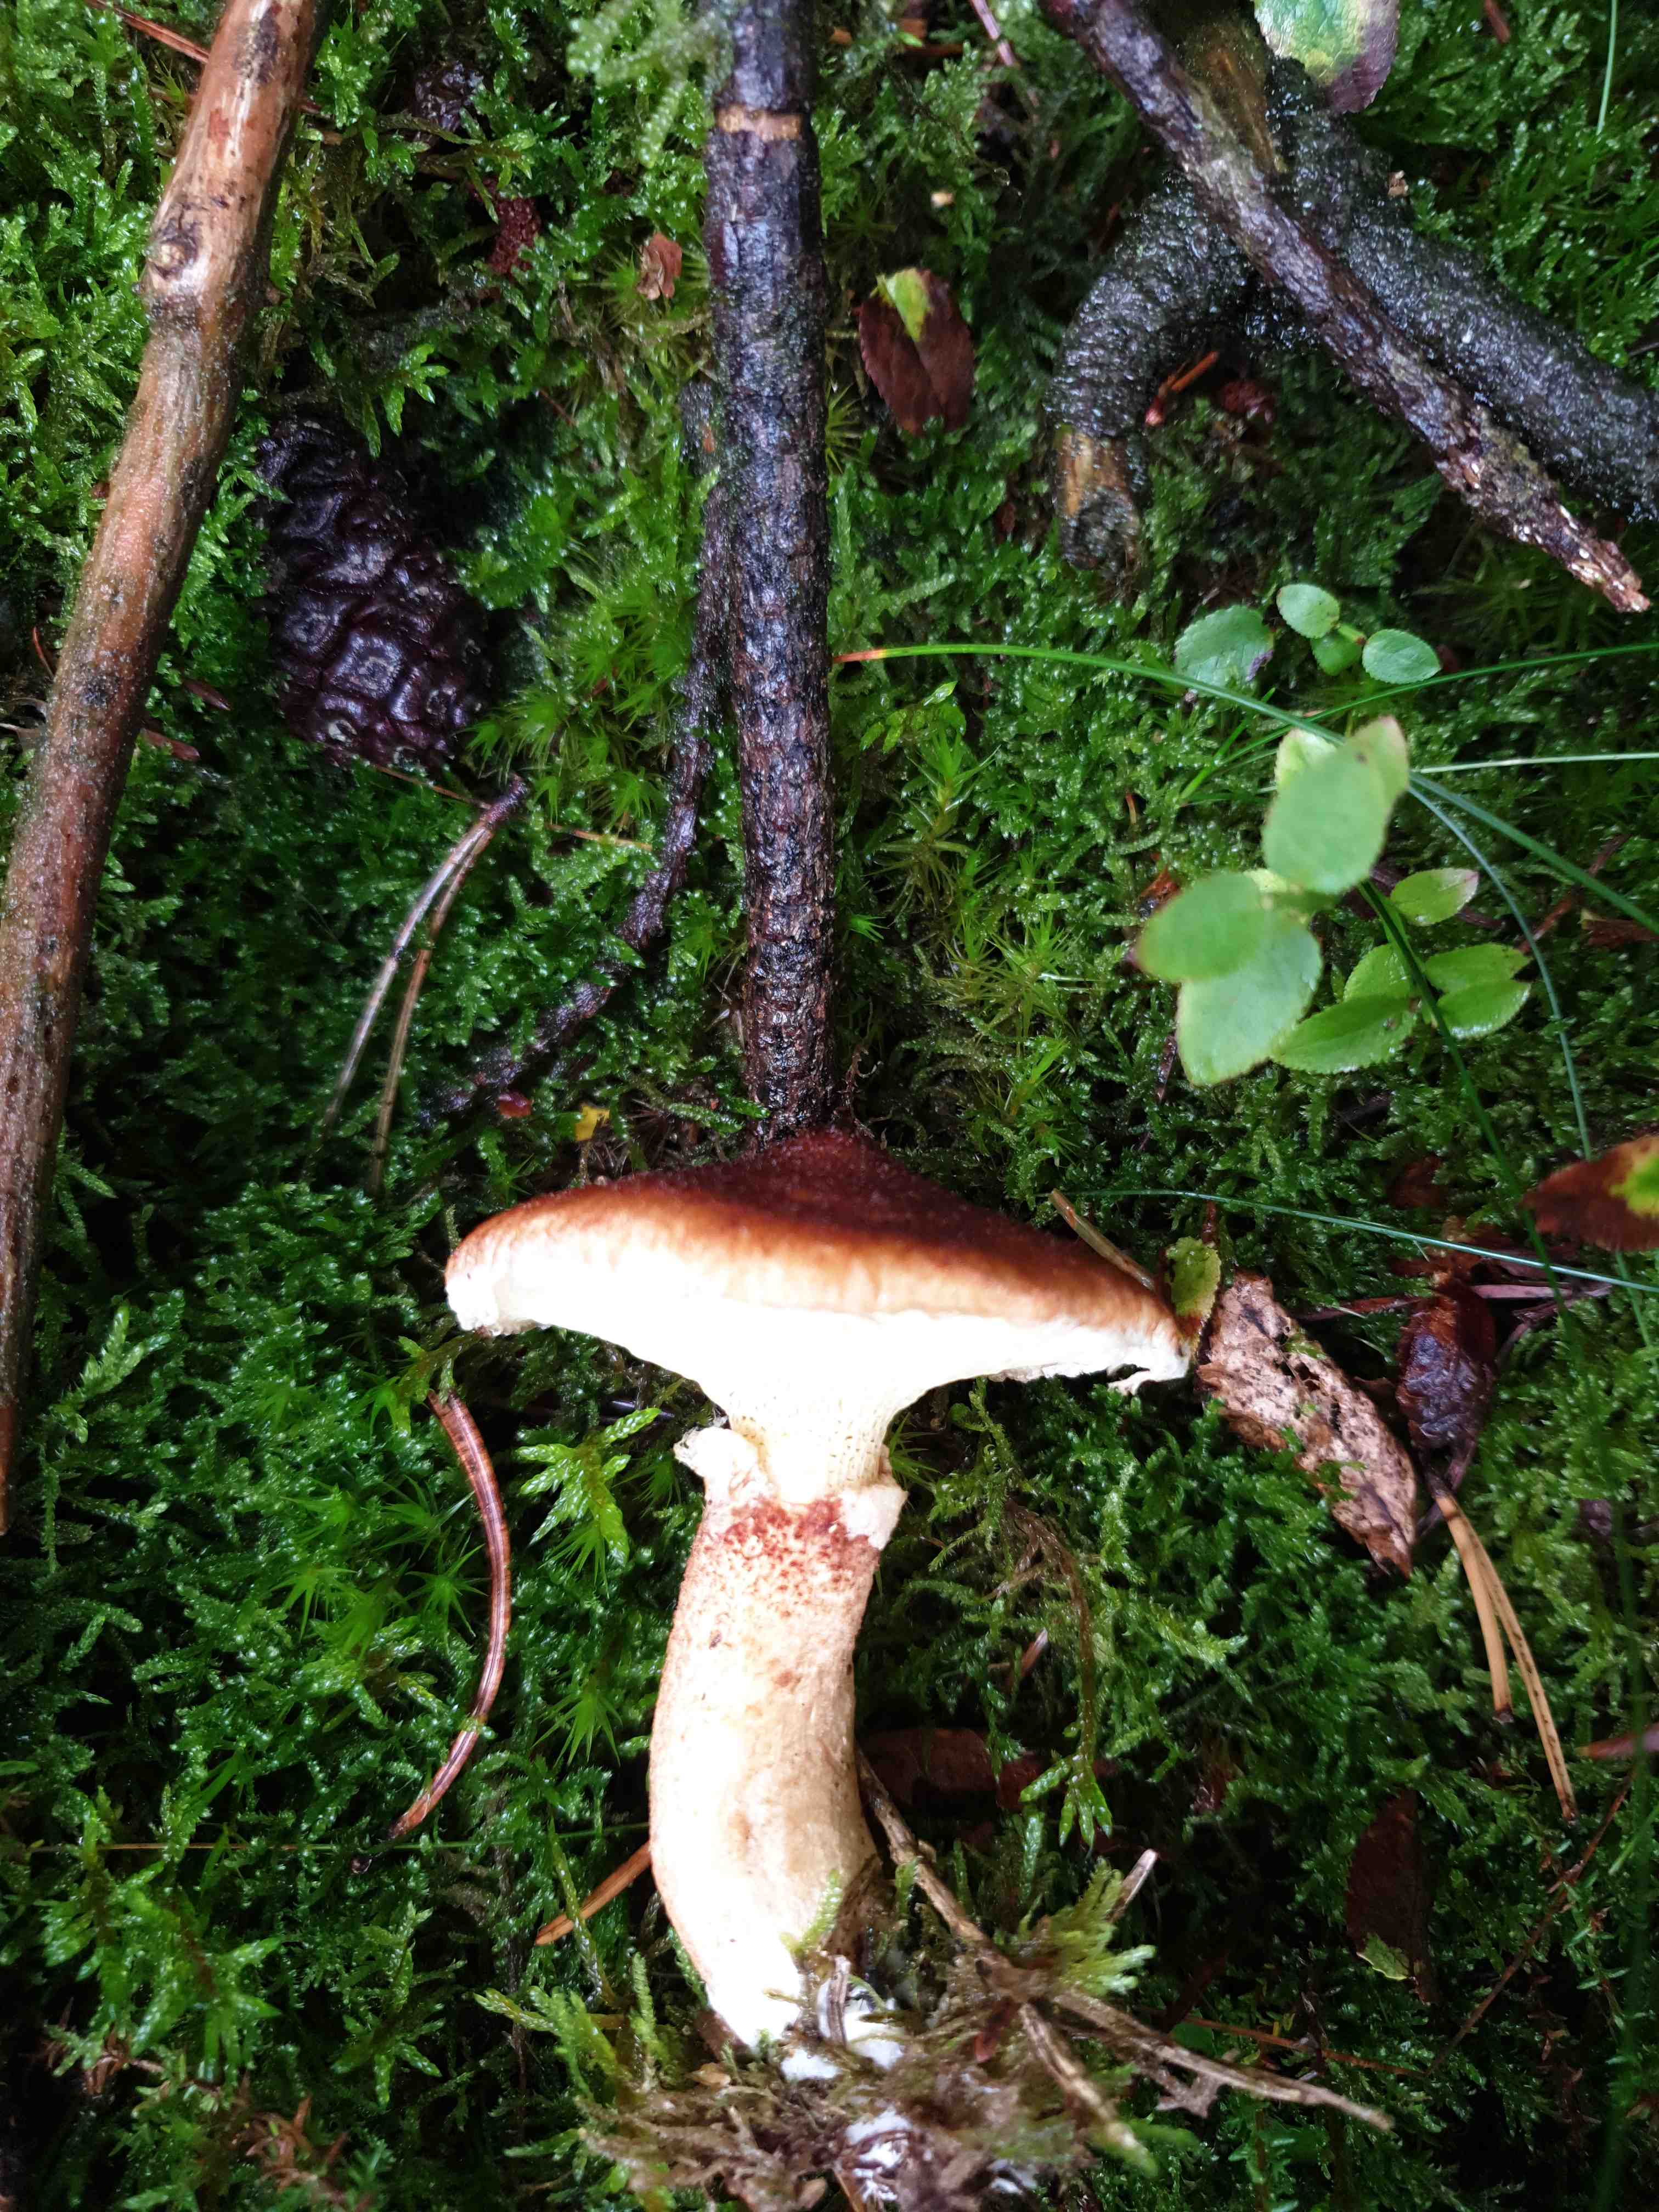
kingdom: Fungi
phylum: Basidiomycota
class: Agaricomycetes
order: Boletales
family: Suillaceae
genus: Suillus
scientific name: Suillus cavipes
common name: hulstokket slimrørhat
